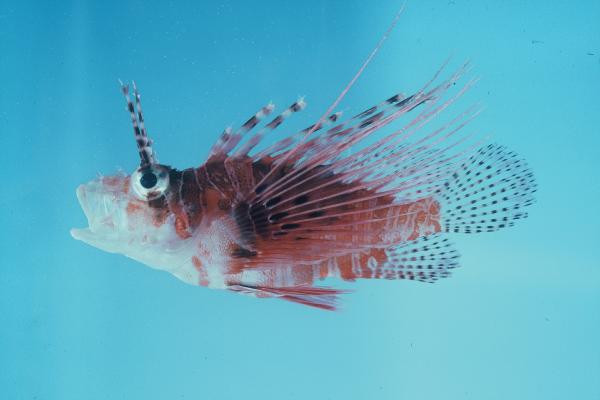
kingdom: Animalia
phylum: Chordata
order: Scorpaeniformes
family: Scorpaenidae
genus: Pterois
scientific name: Pterois antennata
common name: Spotfin lionfish
